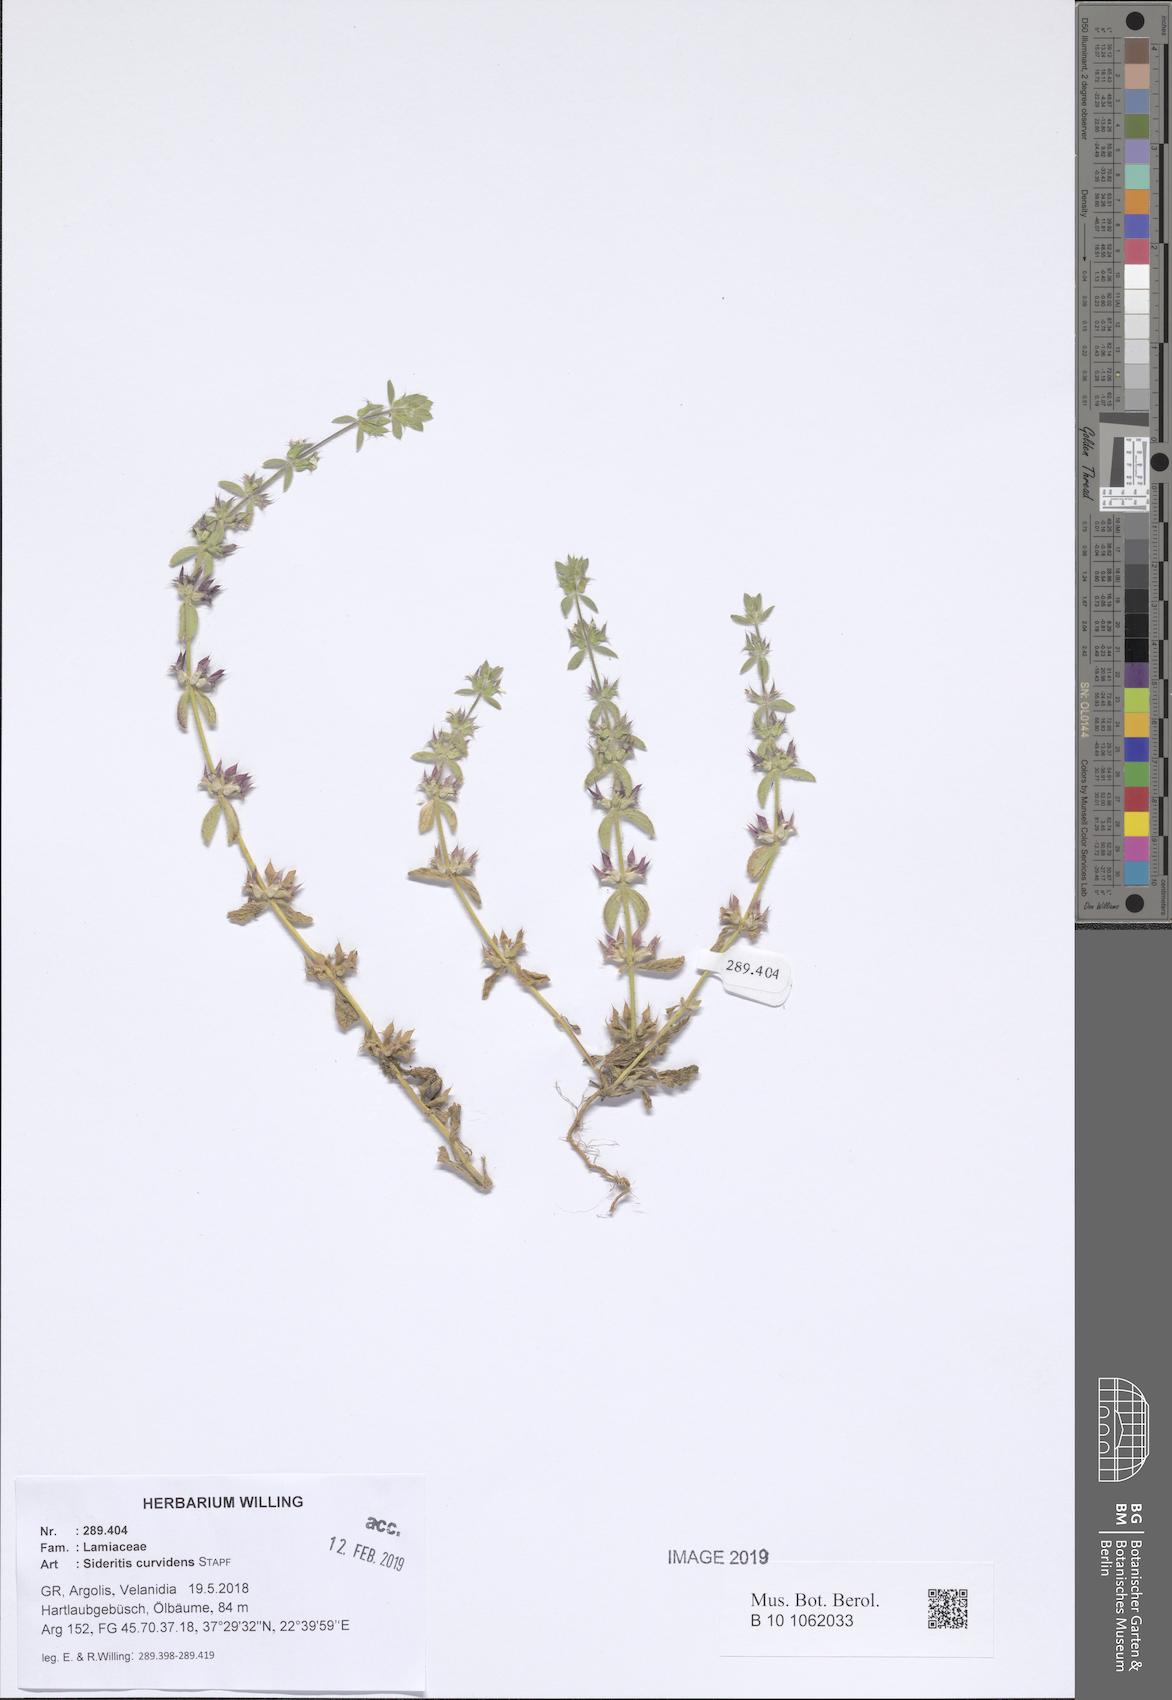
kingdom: Plantae
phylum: Tracheophyta
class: Magnoliopsida
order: Lamiales
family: Lamiaceae
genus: Sideritis
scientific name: Sideritis romana
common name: Simplebeak ironwort
